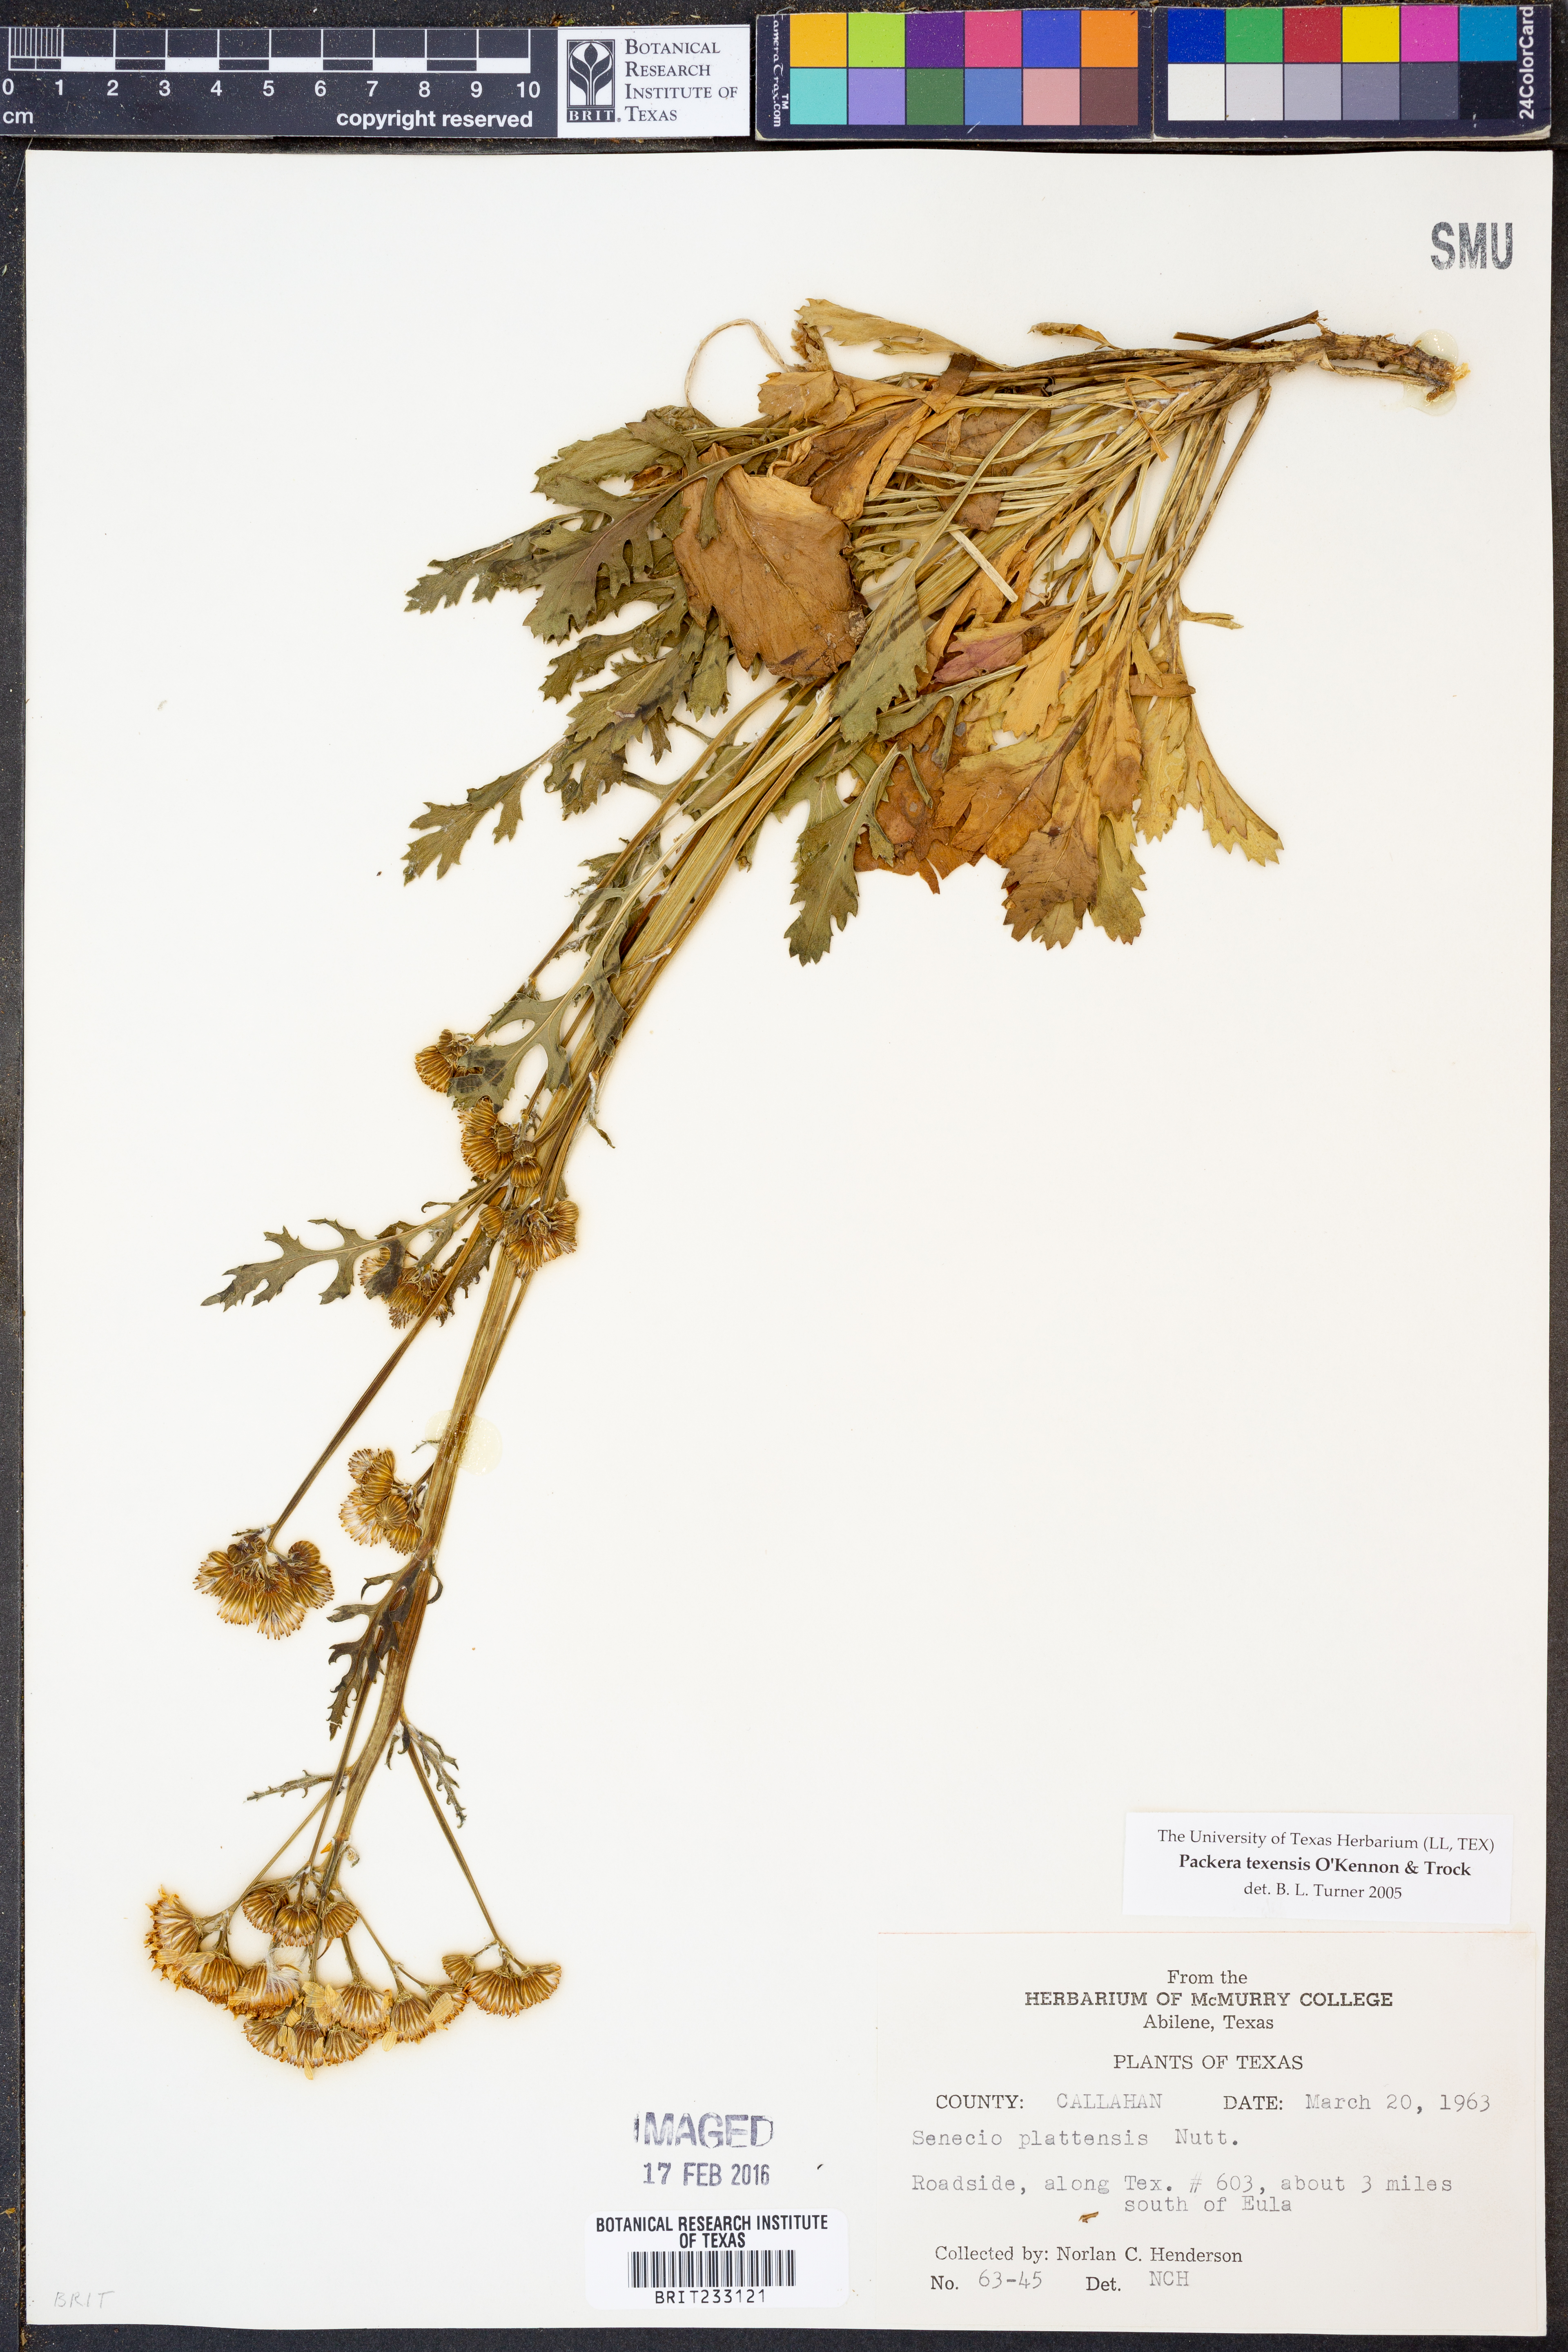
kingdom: Plantae
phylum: Tracheophyta
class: Magnoliopsida
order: Asterales
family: Asteraceae
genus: Packera
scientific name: Packera texensis
